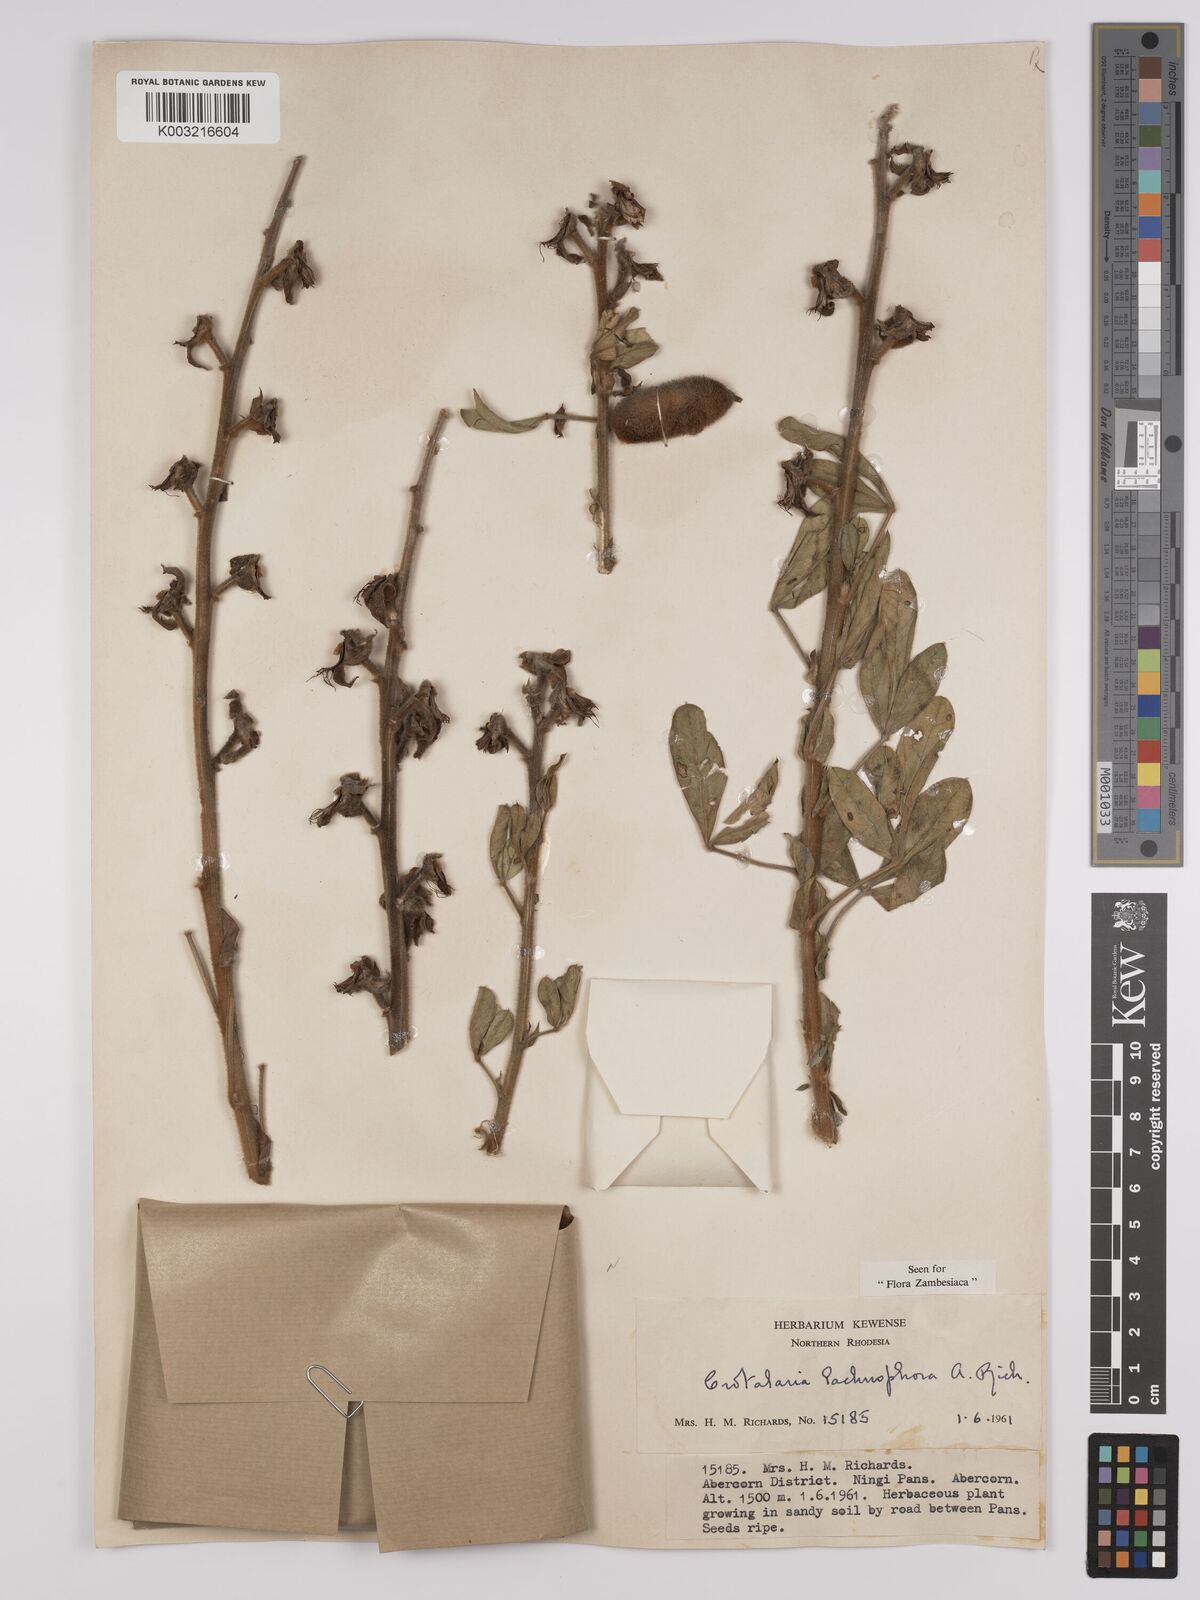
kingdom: Plantae
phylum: Tracheophyta
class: Magnoliopsida
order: Fabales
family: Fabaceae
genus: Crotalaria
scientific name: Crotalaria lachnophora
